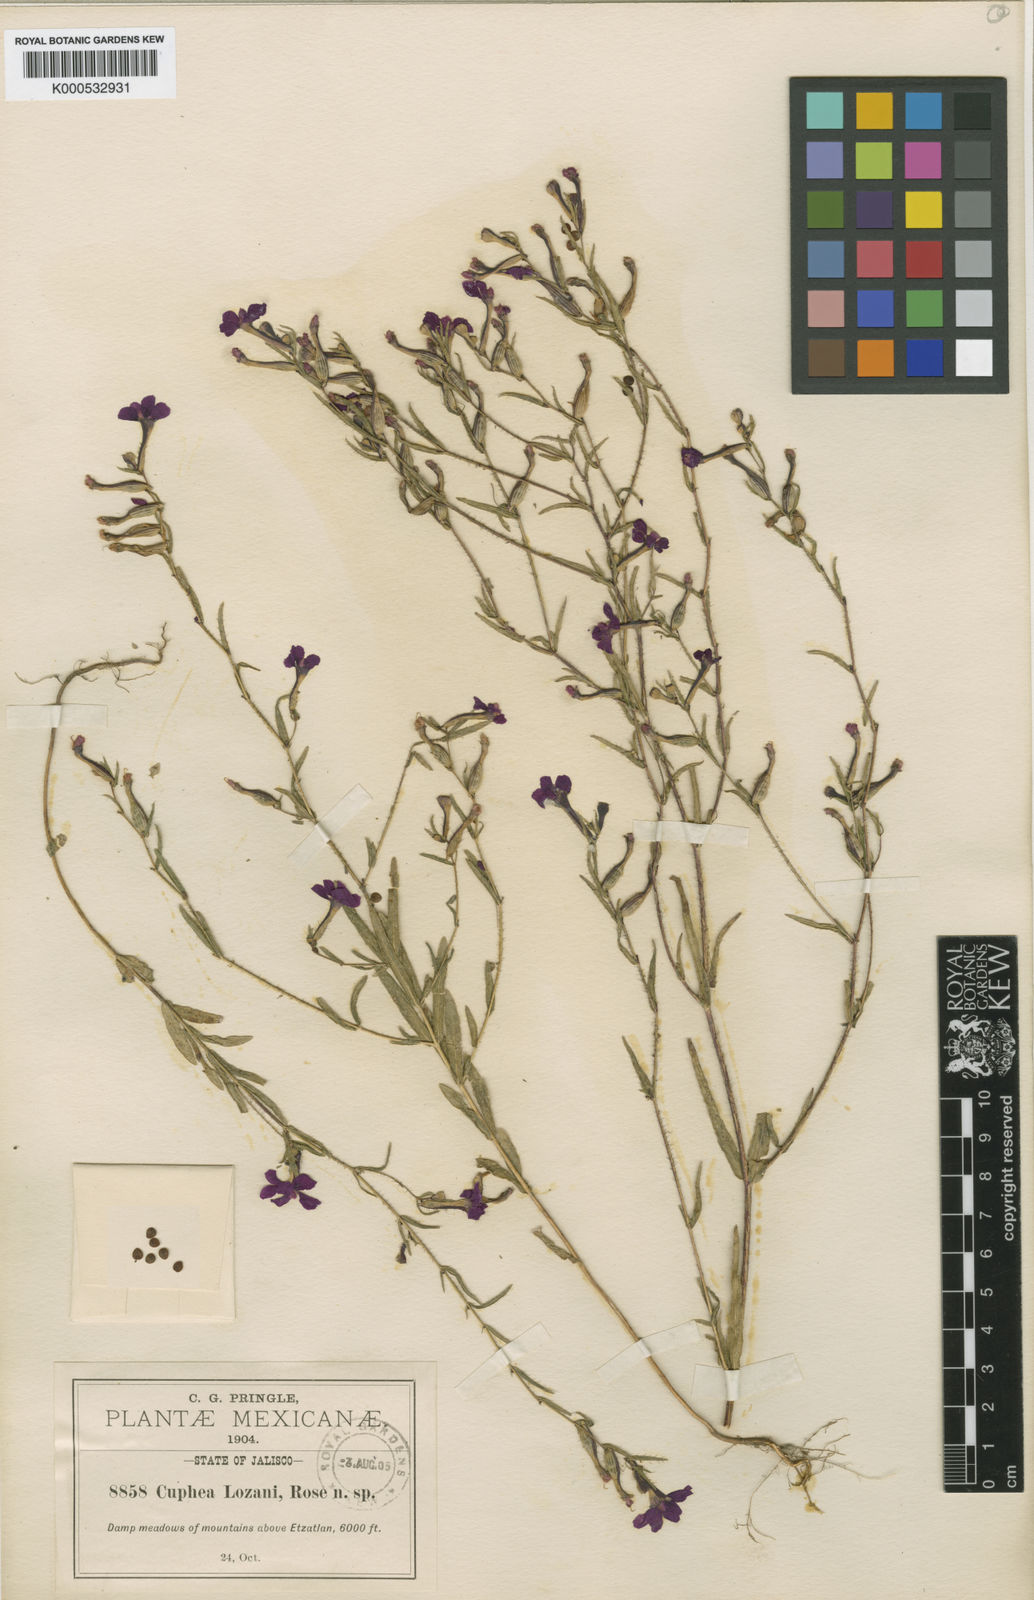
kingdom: Plantae
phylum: Tracheophyta
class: Magnoliopsida
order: Myrtales
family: Lythraceae
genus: Cuphea
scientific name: Cuphea
